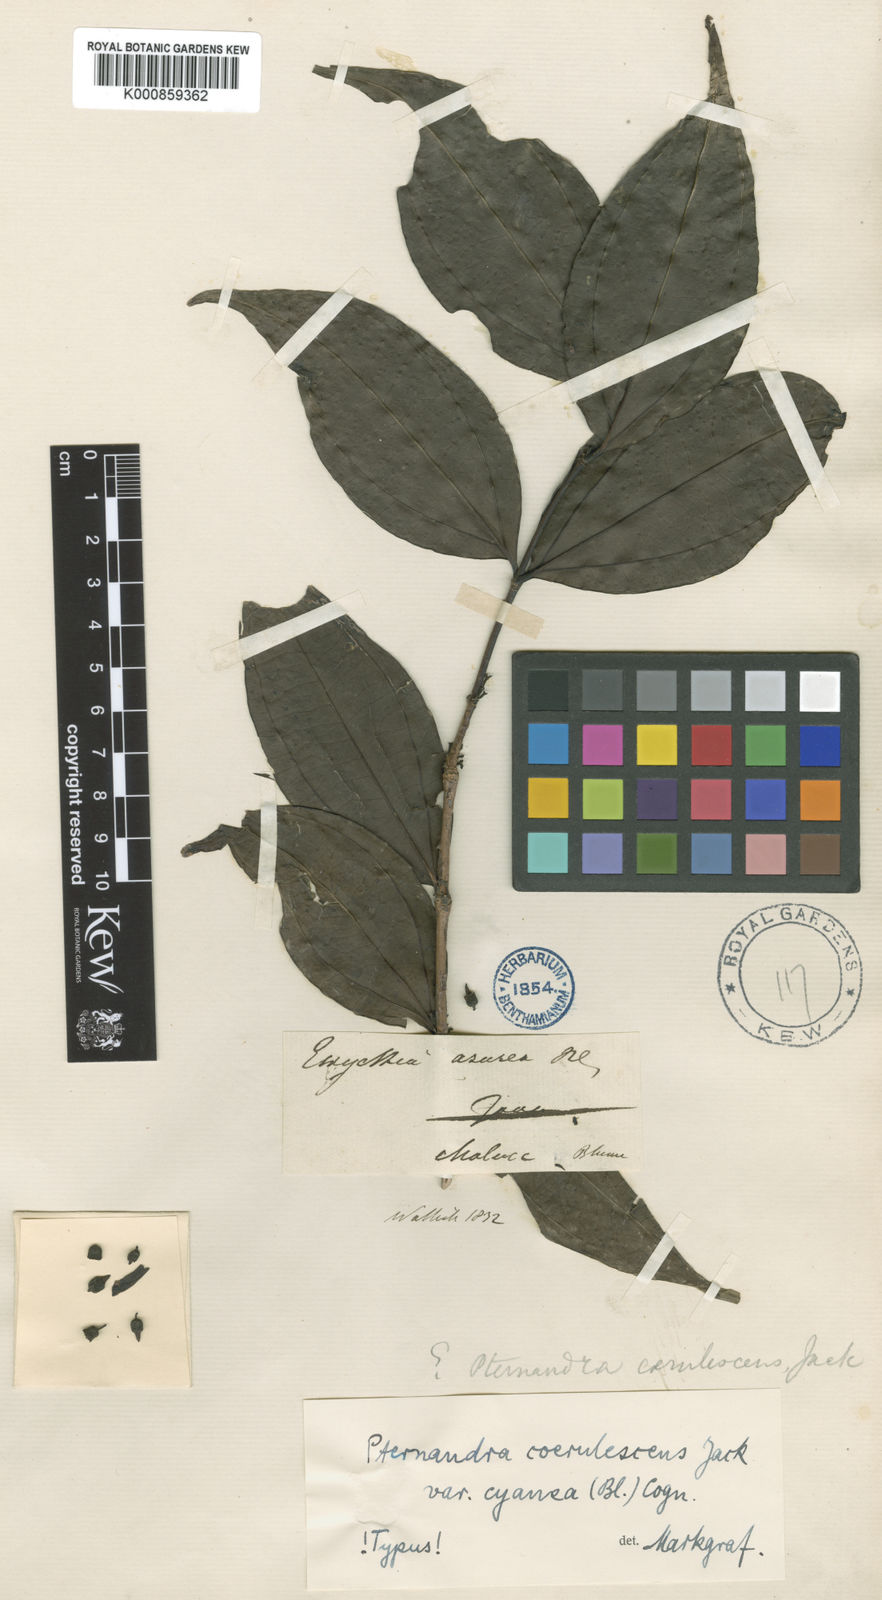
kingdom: Plantae
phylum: Tracheophyta
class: Magnoliopsida
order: Myrtales
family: Melastomataceae
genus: Pternandra
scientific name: Pternandra coerulescens
